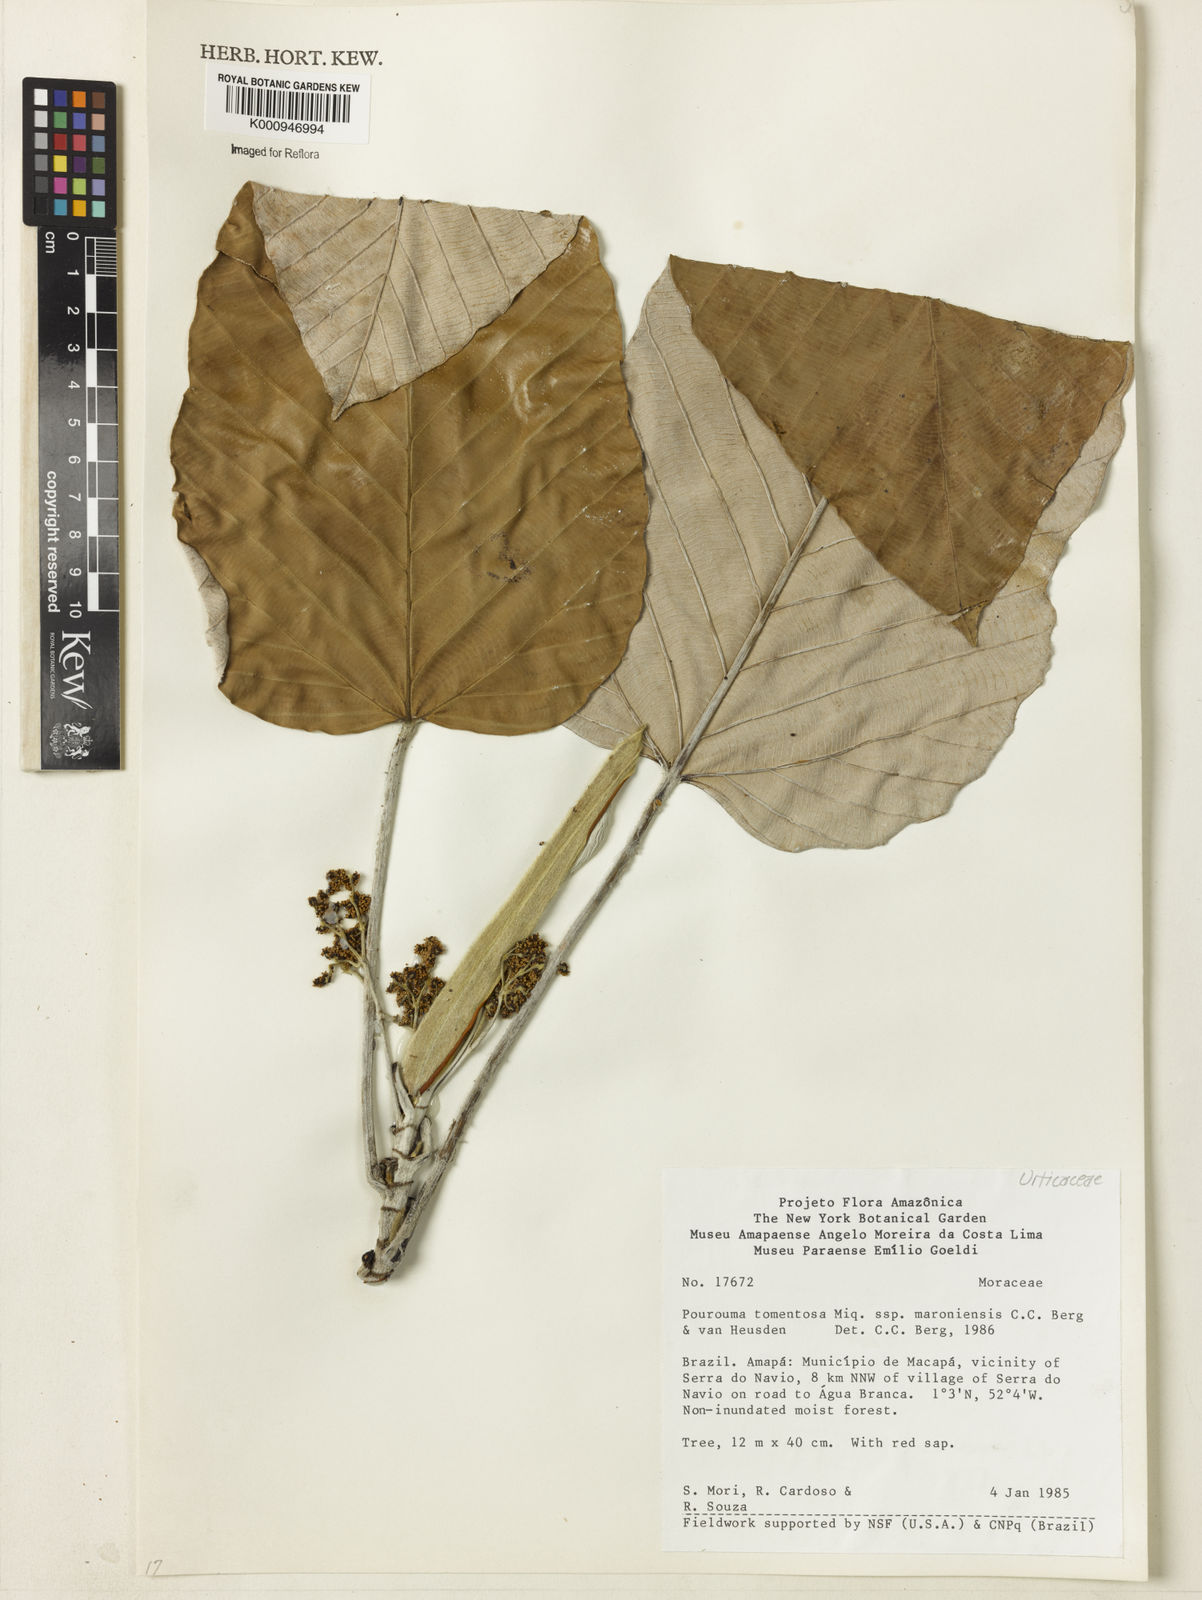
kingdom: Plantae
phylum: Tracheophyta
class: Magnoliopsida
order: Rosales
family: Urticaceae
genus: Pourouma
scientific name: Pourouma tomentosa
